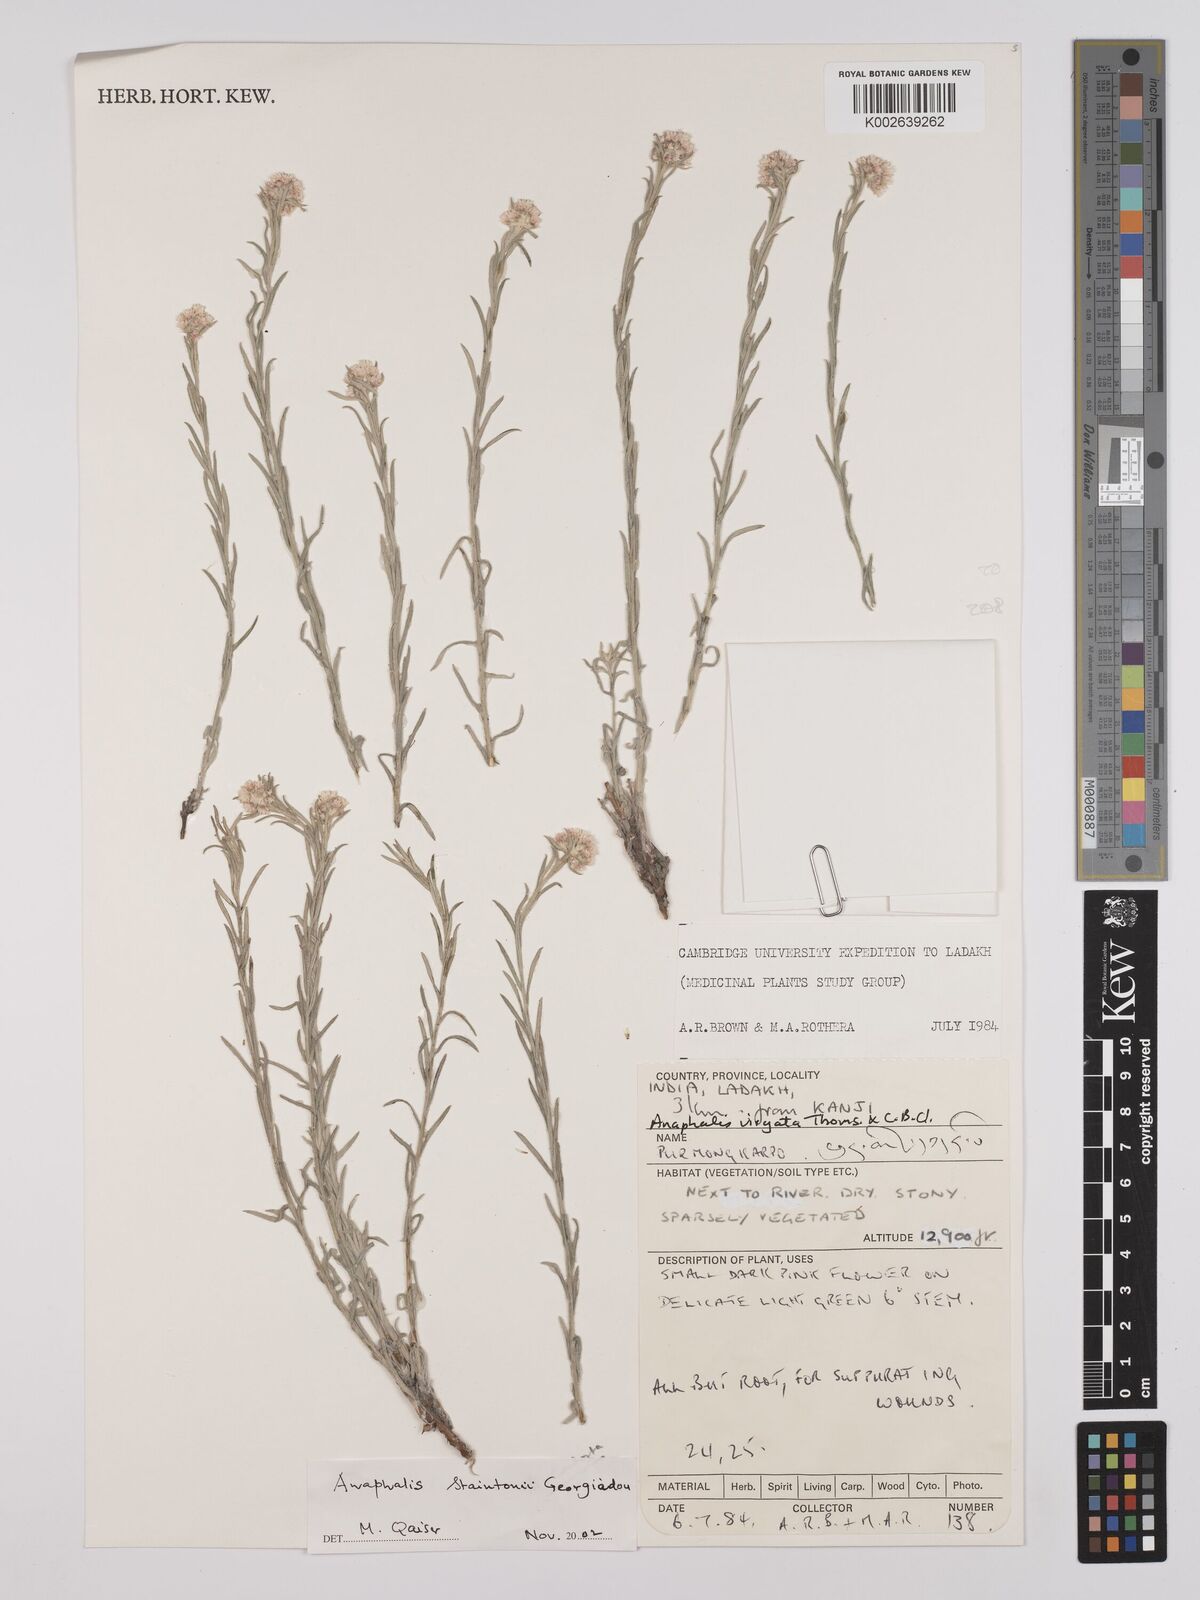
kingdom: Plantae
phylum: Tracheophyta
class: Magnoliopsida
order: Asterales
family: Asteraceae
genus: Anaphalis
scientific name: Anaphalis virgata
